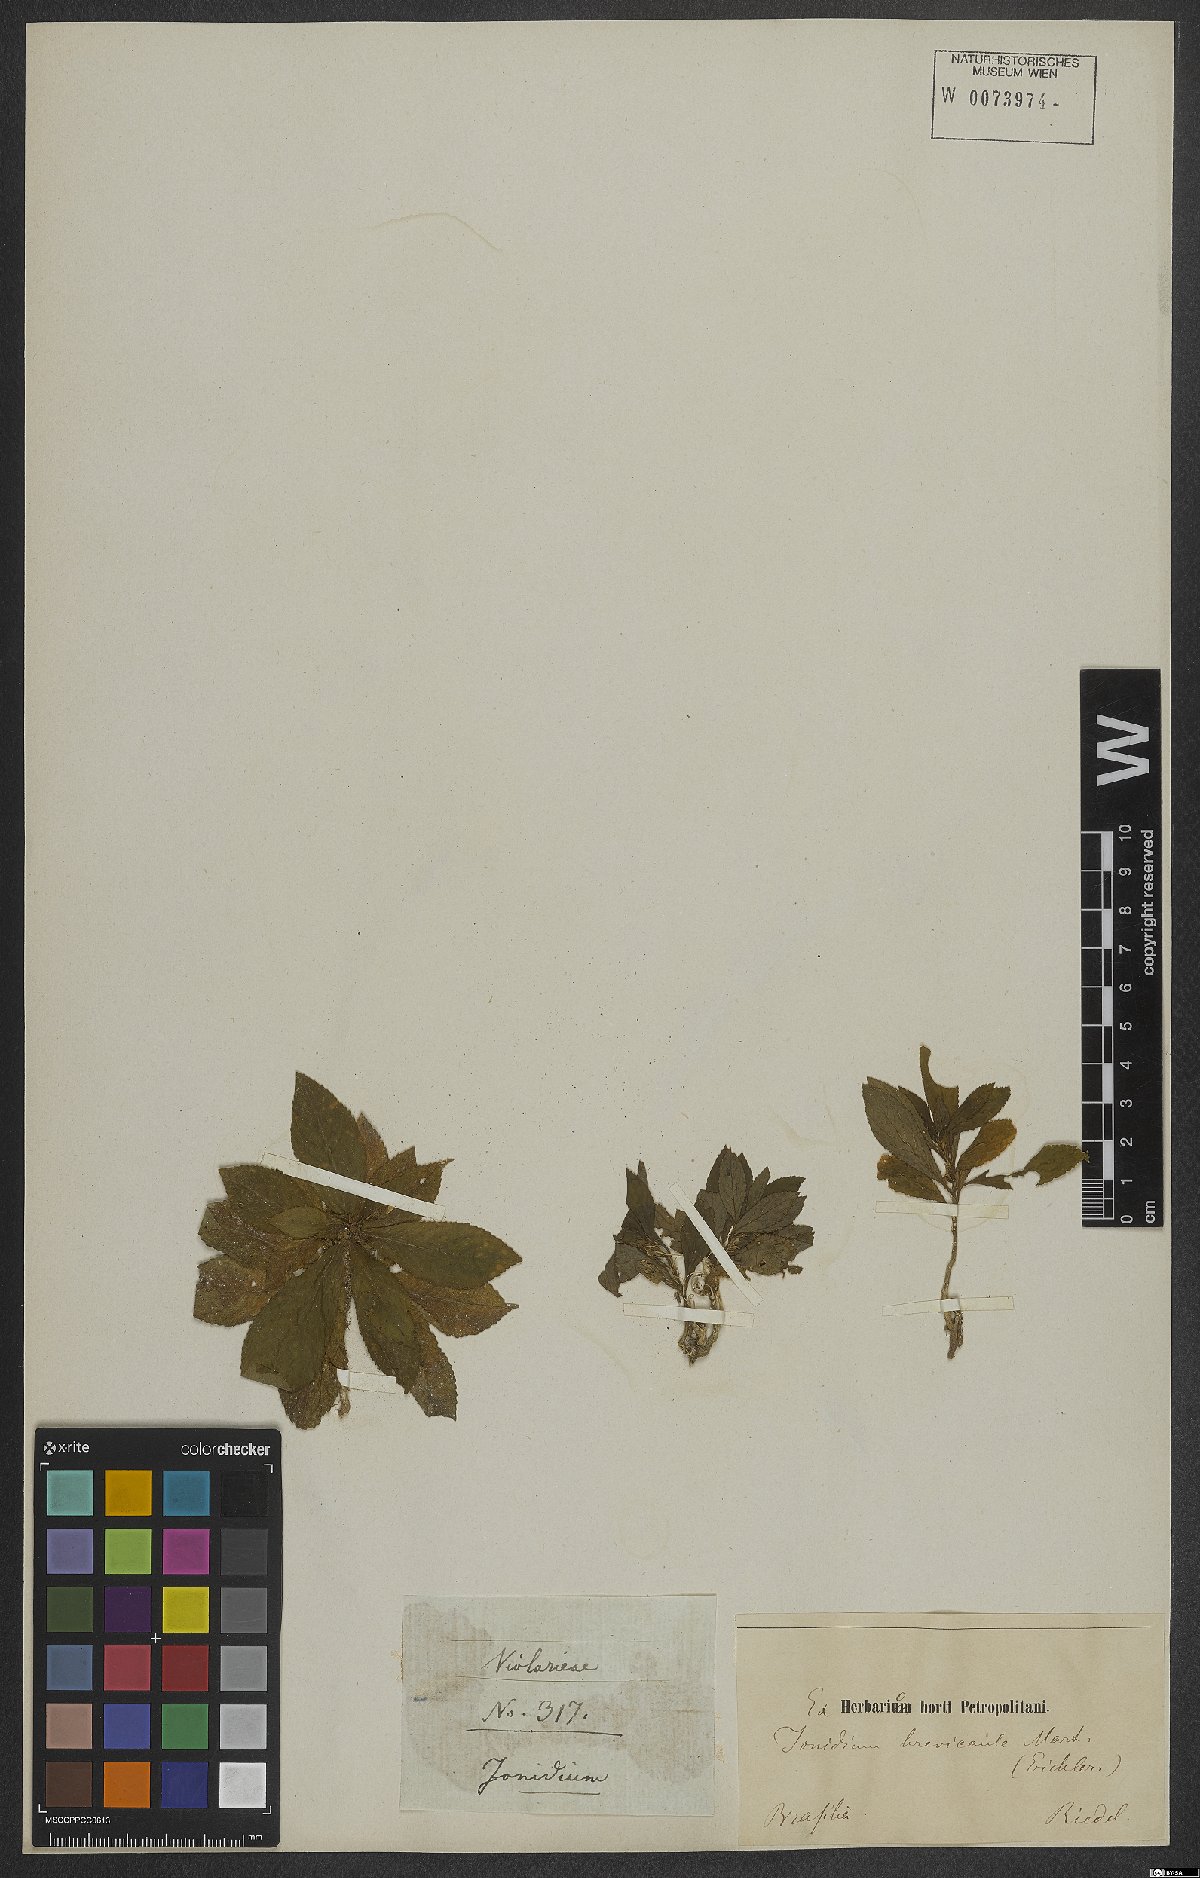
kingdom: Plantae
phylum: Tracheophyta
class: Magnoliopsida
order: Malpighiales
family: Violaceae
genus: Pombalia
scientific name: Pombalia brevicaulis
